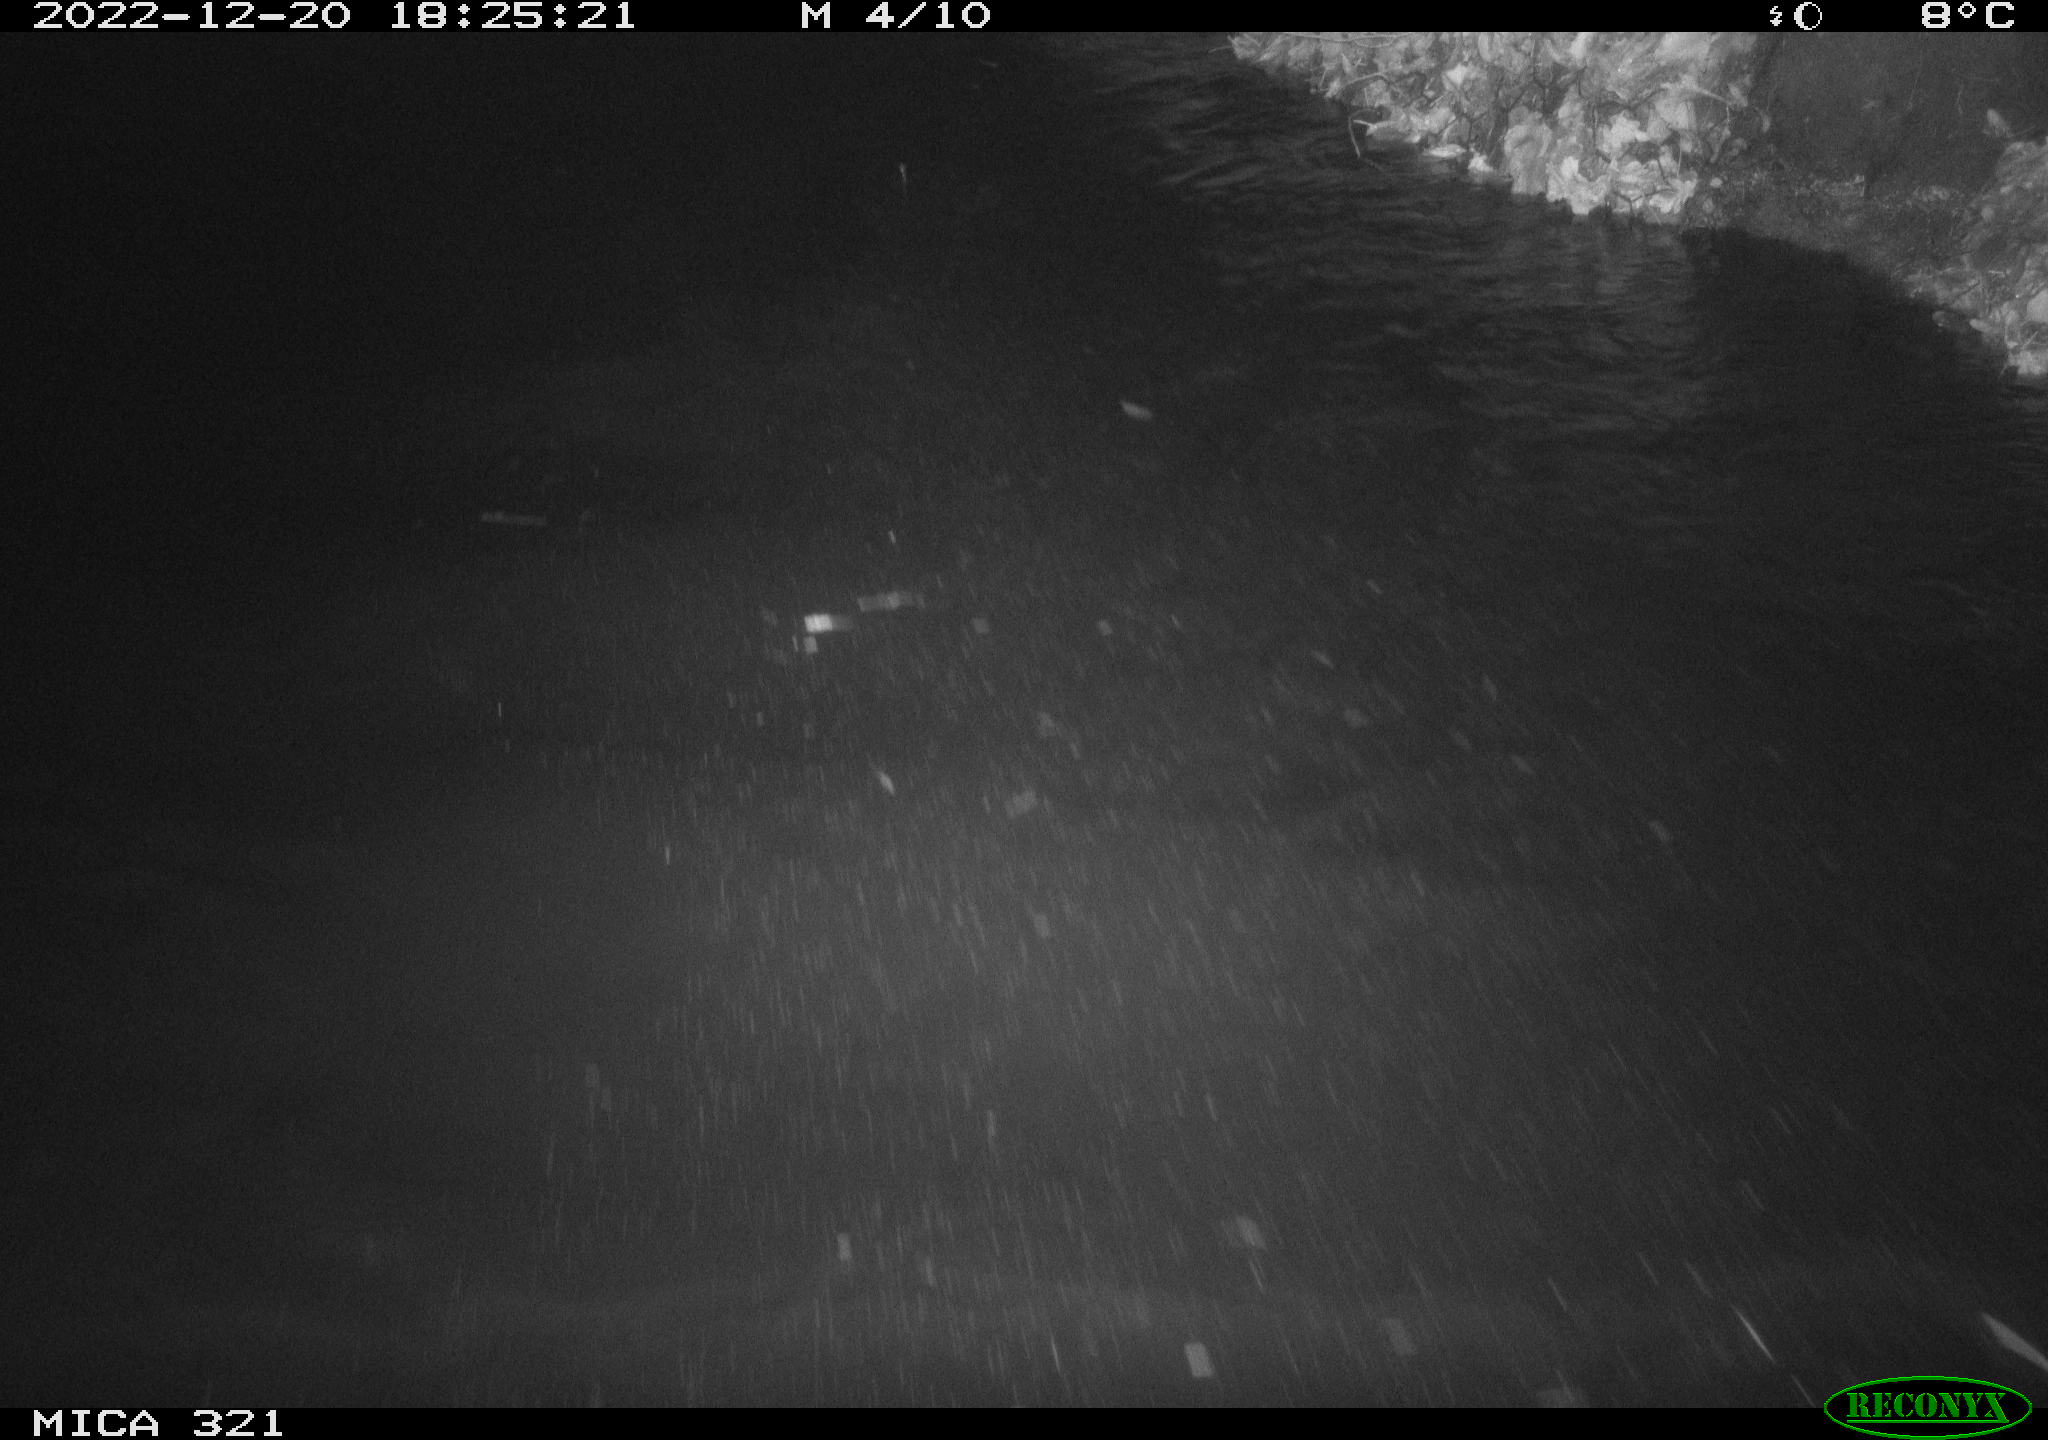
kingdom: Animalia
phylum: Chordata
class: Aves
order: Gruiformes
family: Rallidae
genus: Fulica
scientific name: Fulica atra
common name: Eurasian coot
